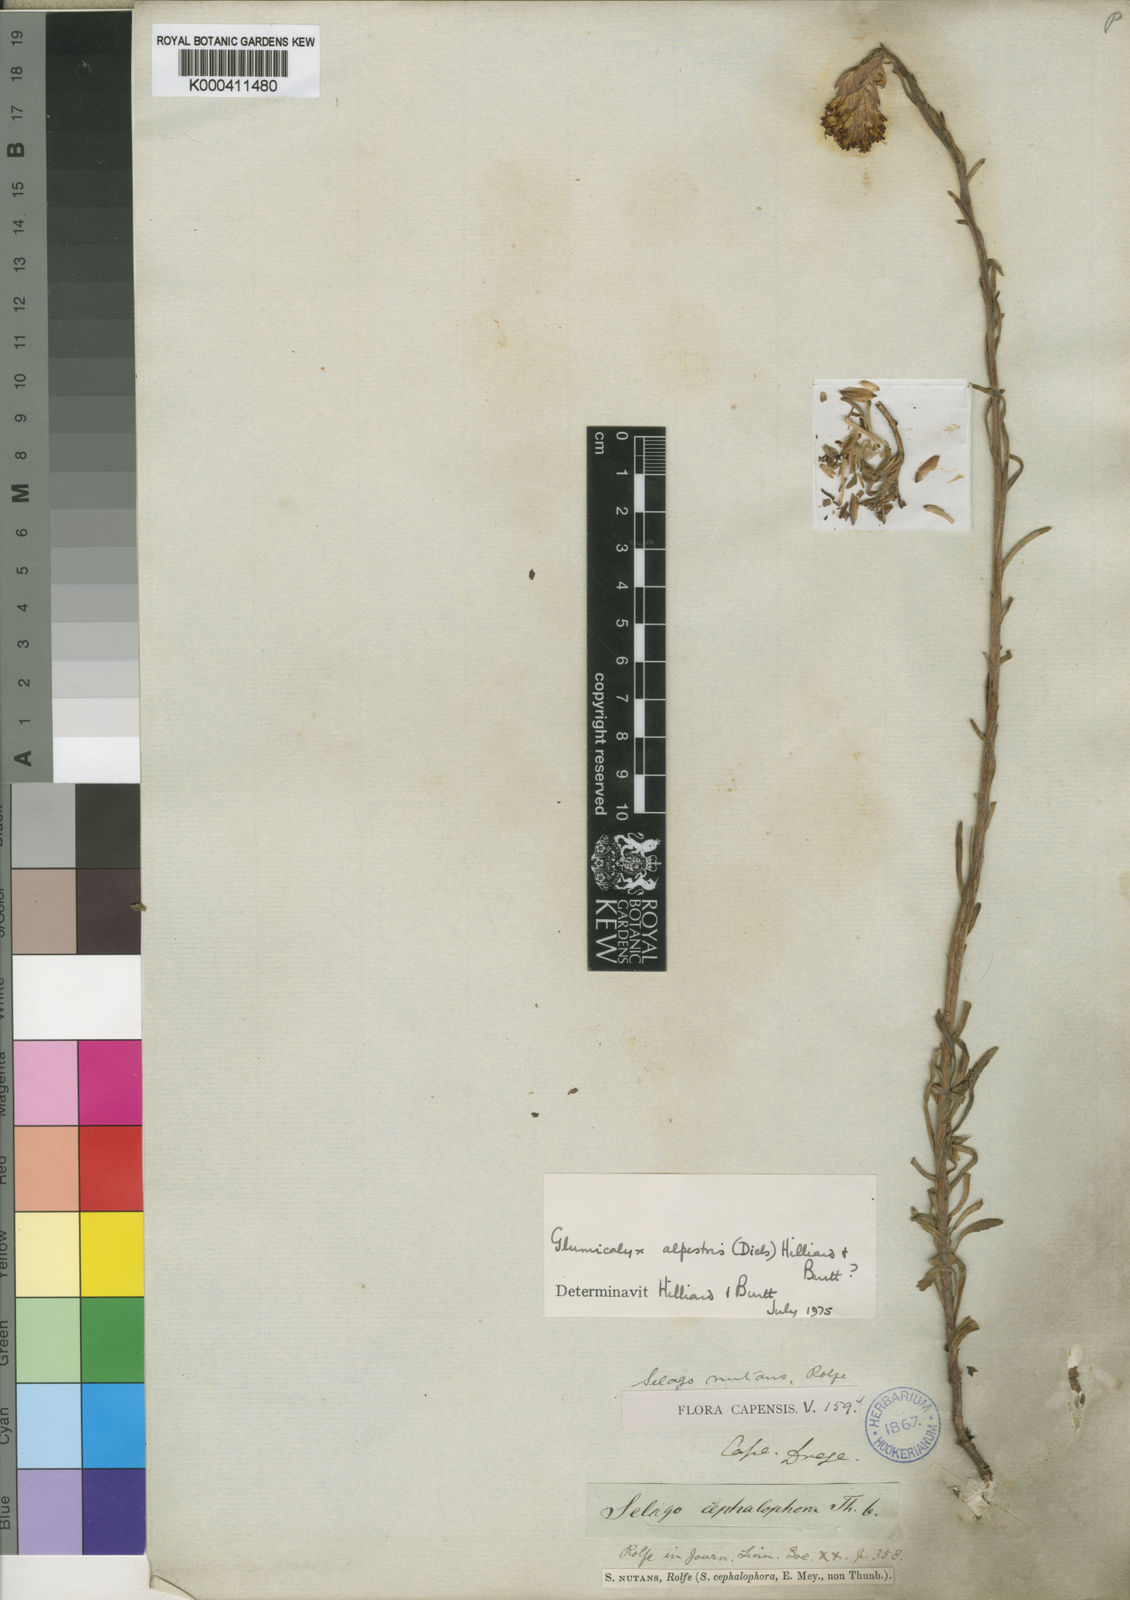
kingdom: Plantae
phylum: Tracheophyta
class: Magnoliopsida
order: Lamiales
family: Scrophulariaceae
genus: Glumicalyx
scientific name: Glumicalyx nutans
